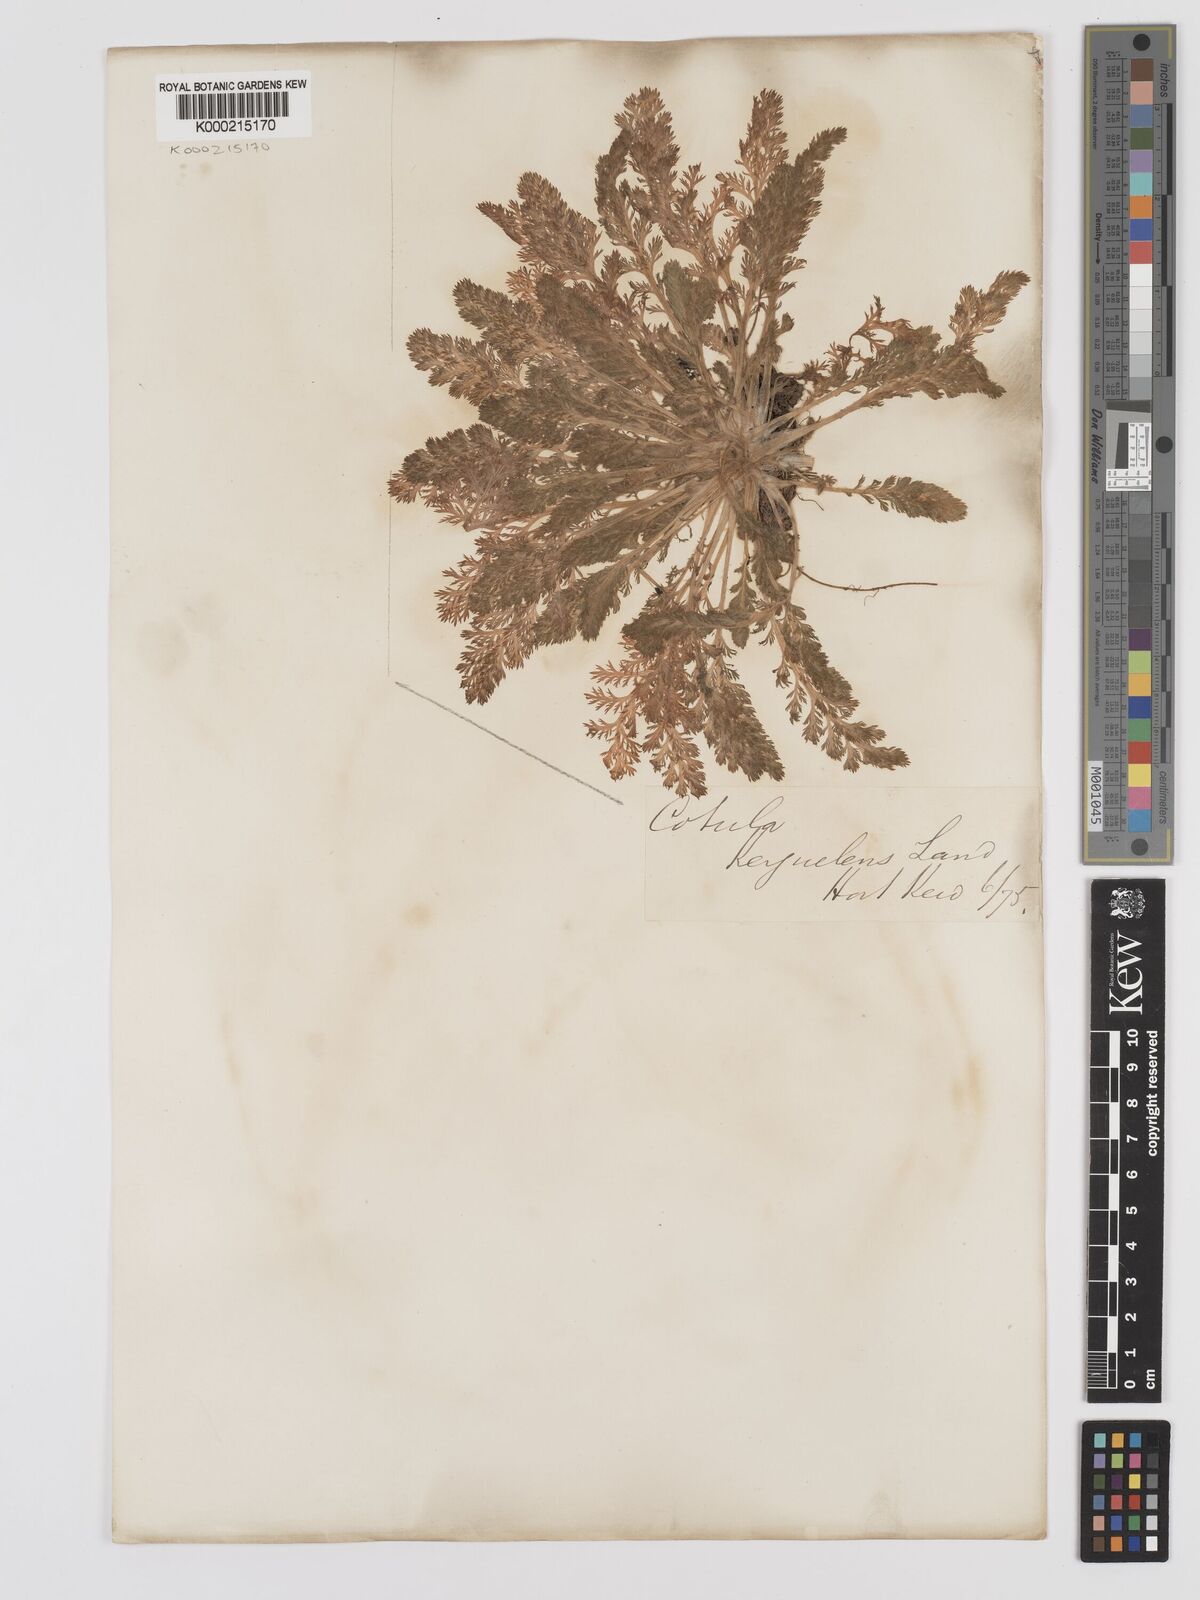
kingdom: Plantae
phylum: Tracheophyta
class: Magnoliopsida
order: Asterales
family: Asteraceae
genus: Leptinella
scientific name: Leptinella
